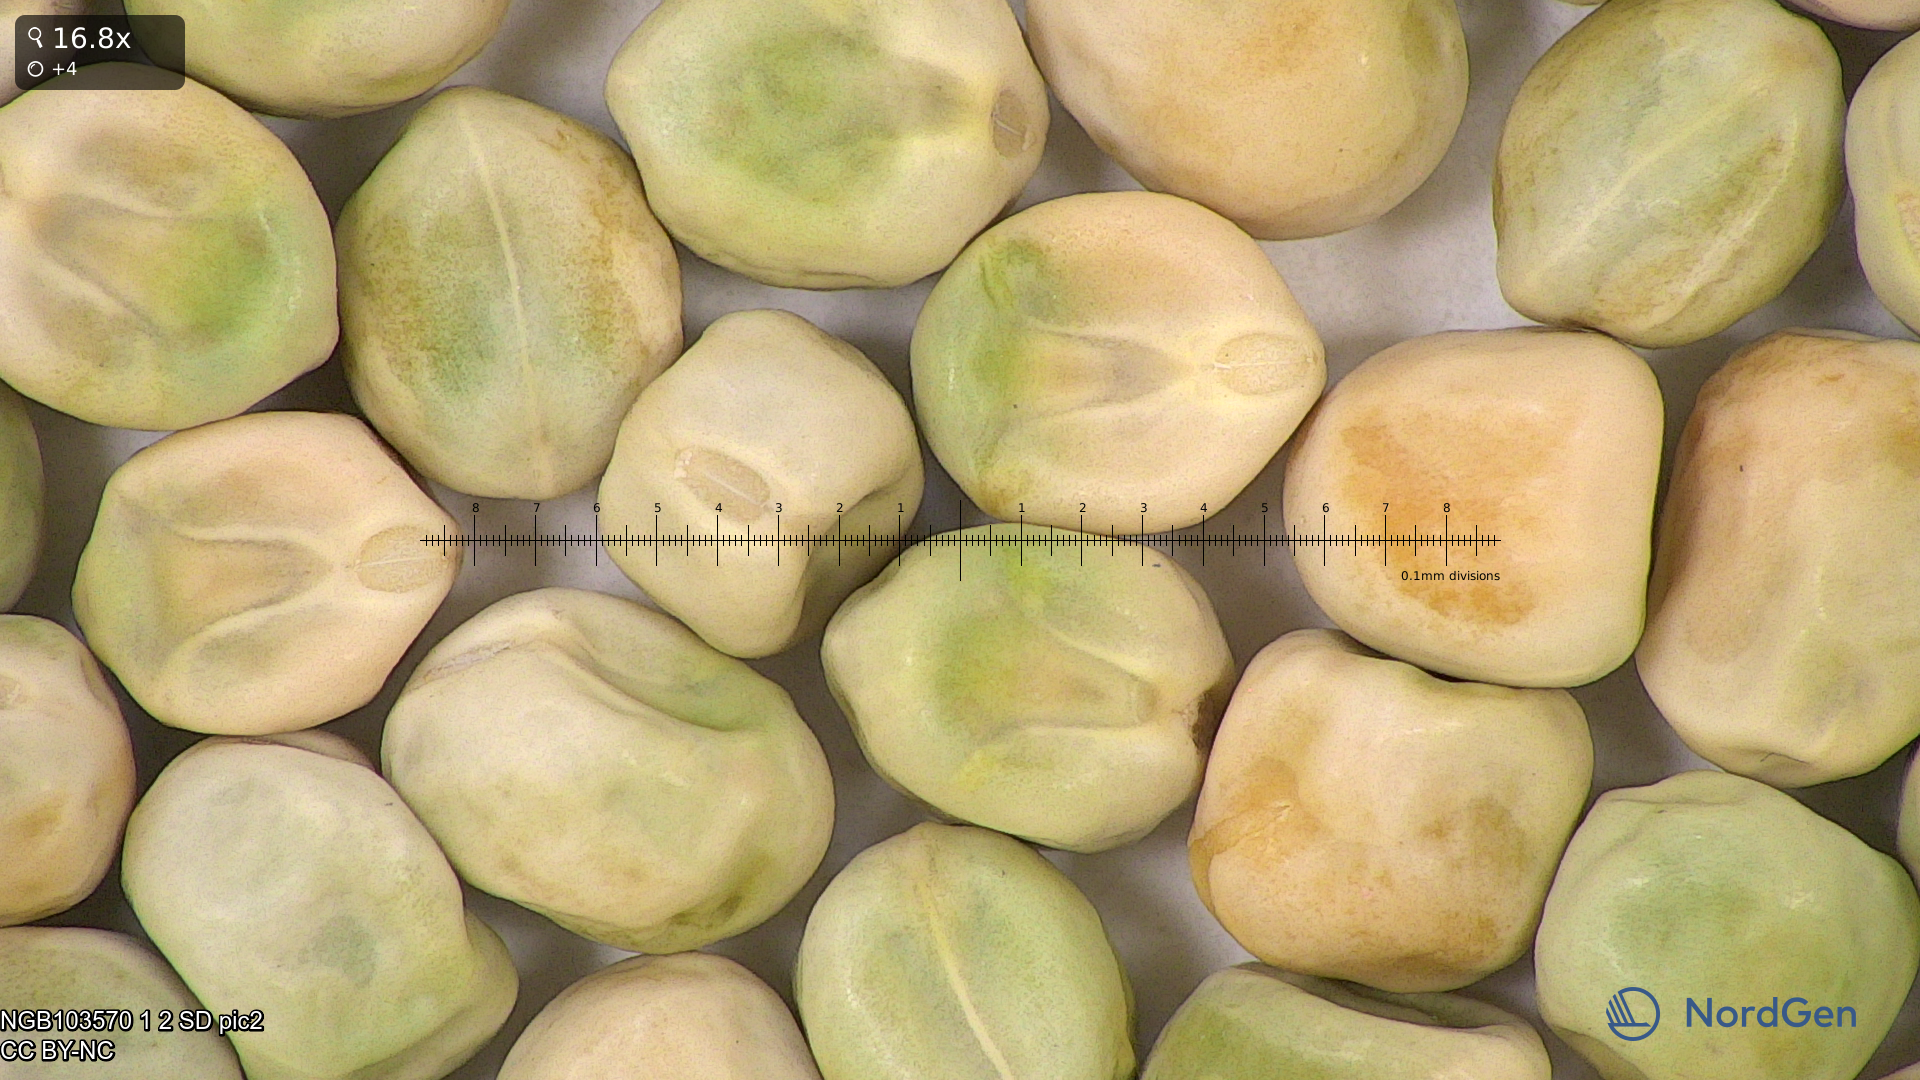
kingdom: Plantae
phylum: Tracheophyta
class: Magnoliopsida
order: Fabales
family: Fabaceae
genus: Lathyrus
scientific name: Lathyrus oleraceus
